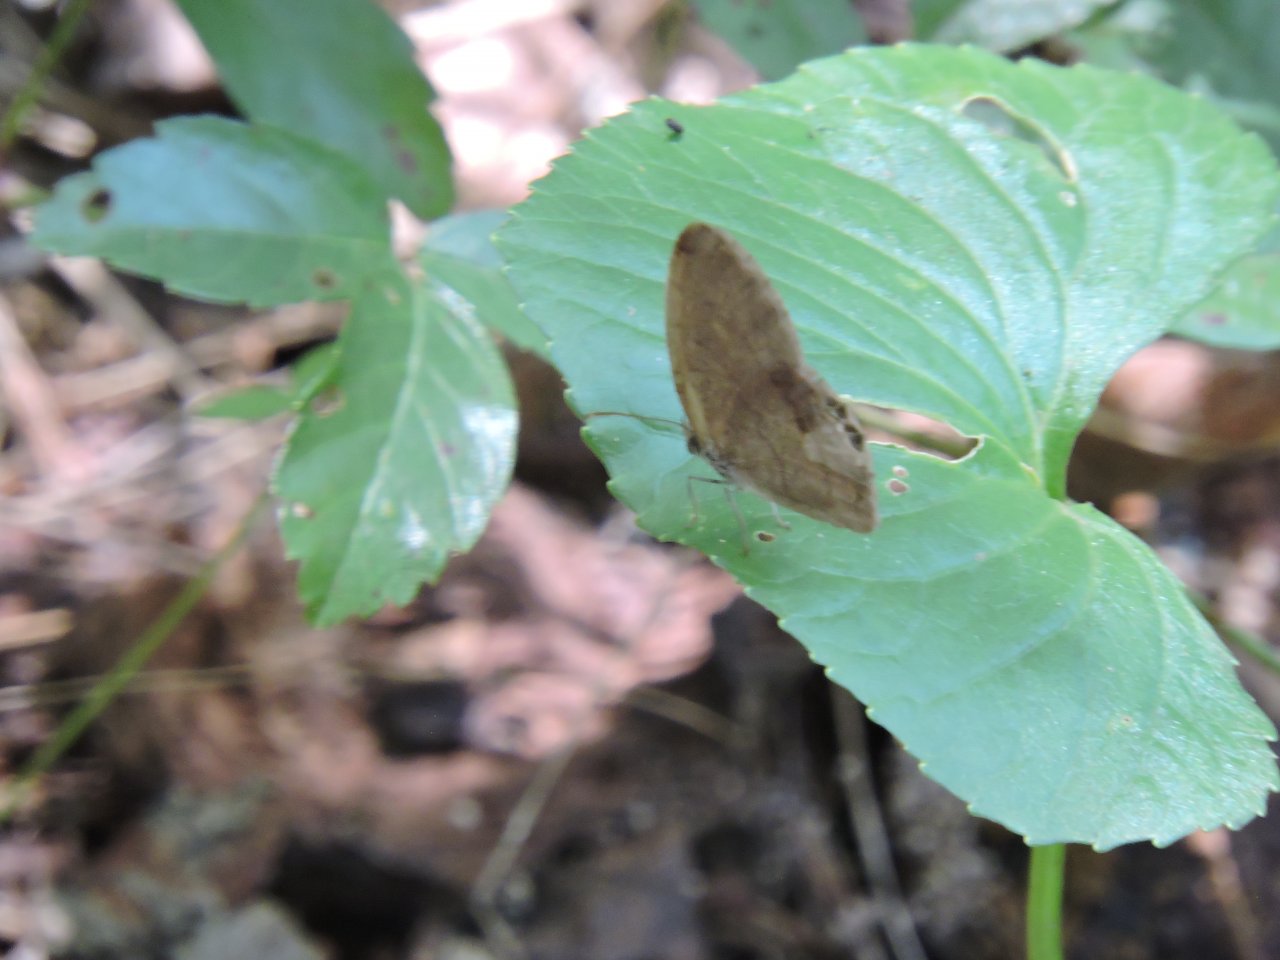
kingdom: Animalia
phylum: Arthropoda
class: Insecta
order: Lepidoptera
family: Nymphalidae
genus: Euptychia
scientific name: Euptychia cornelius
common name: Gemmed Satyr
